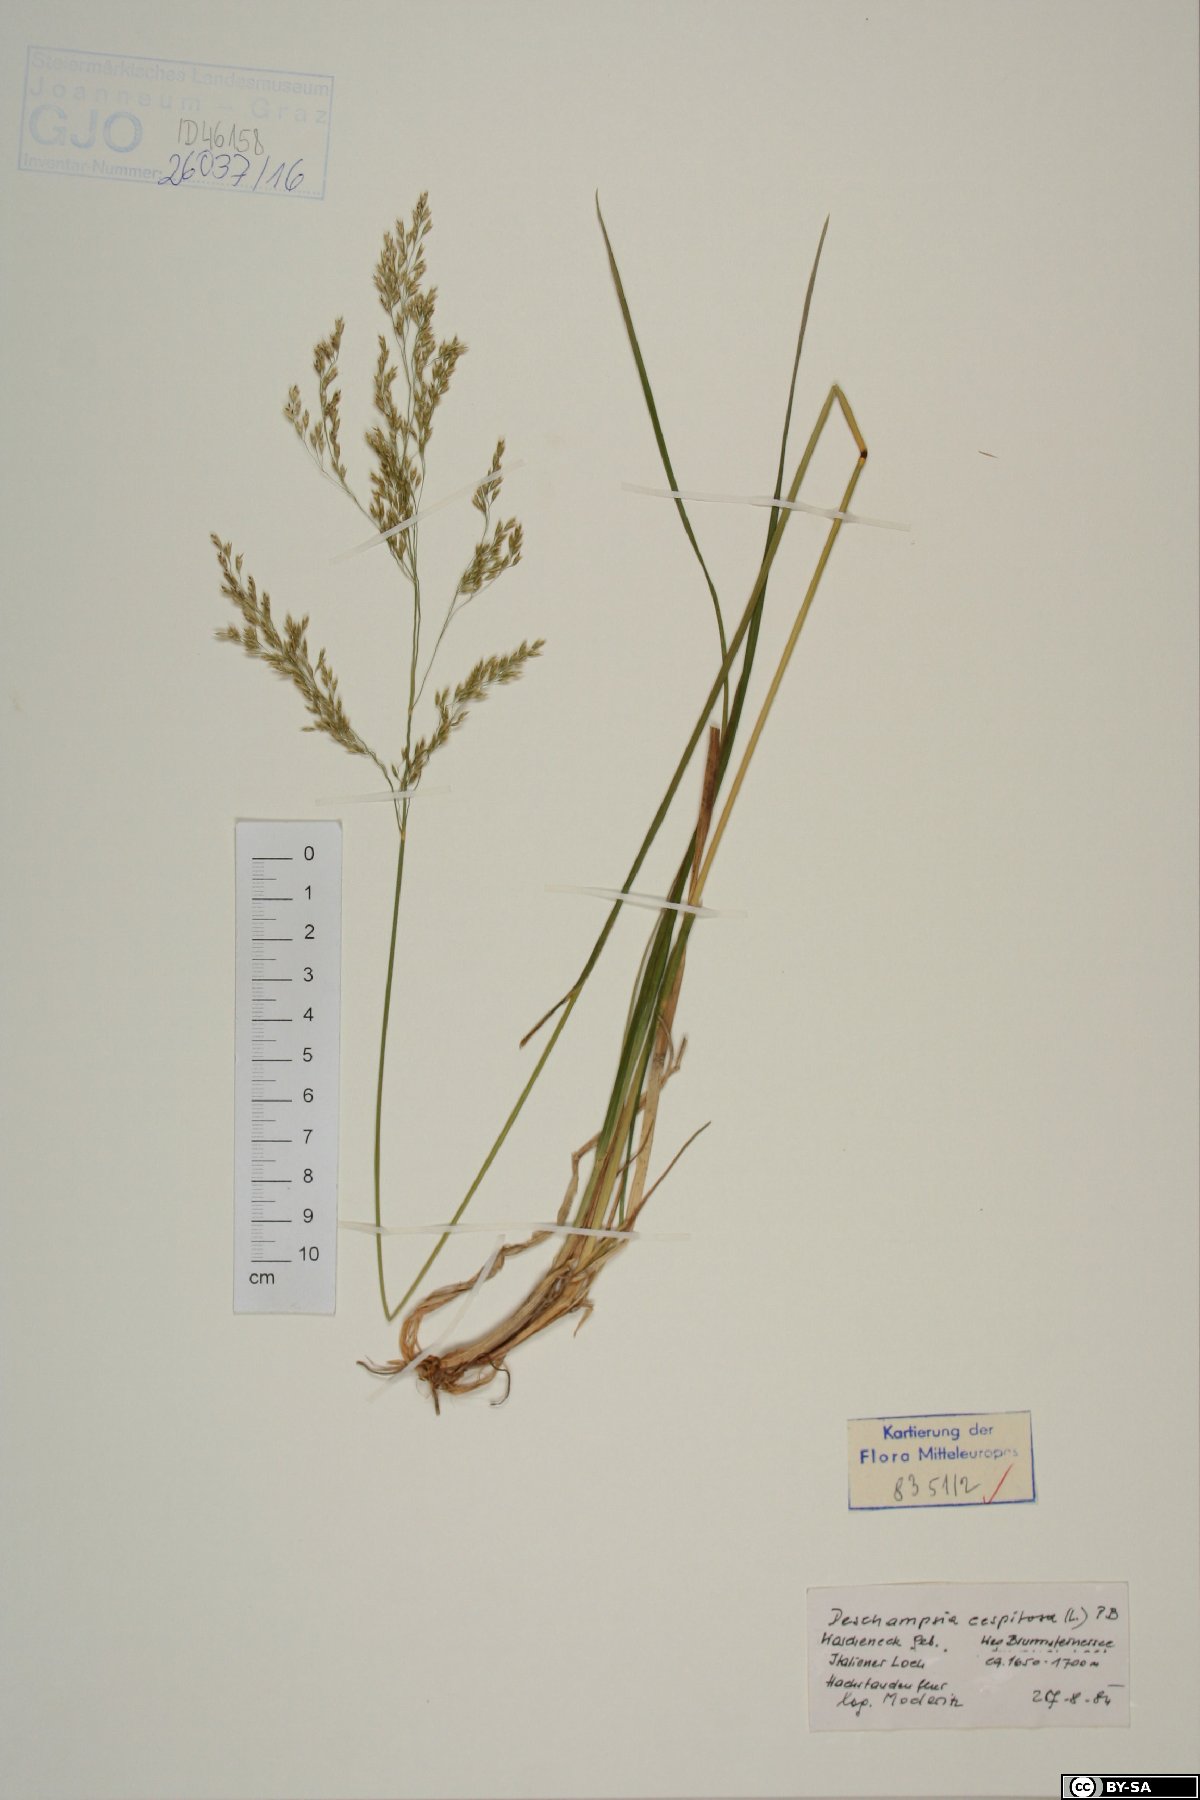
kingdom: Plantae
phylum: Tracheophyta
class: Liliopsida
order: Poales
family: Poaceae
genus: Deschampsia
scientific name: Deschampsia cespitosa
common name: Tufted hair-grass
